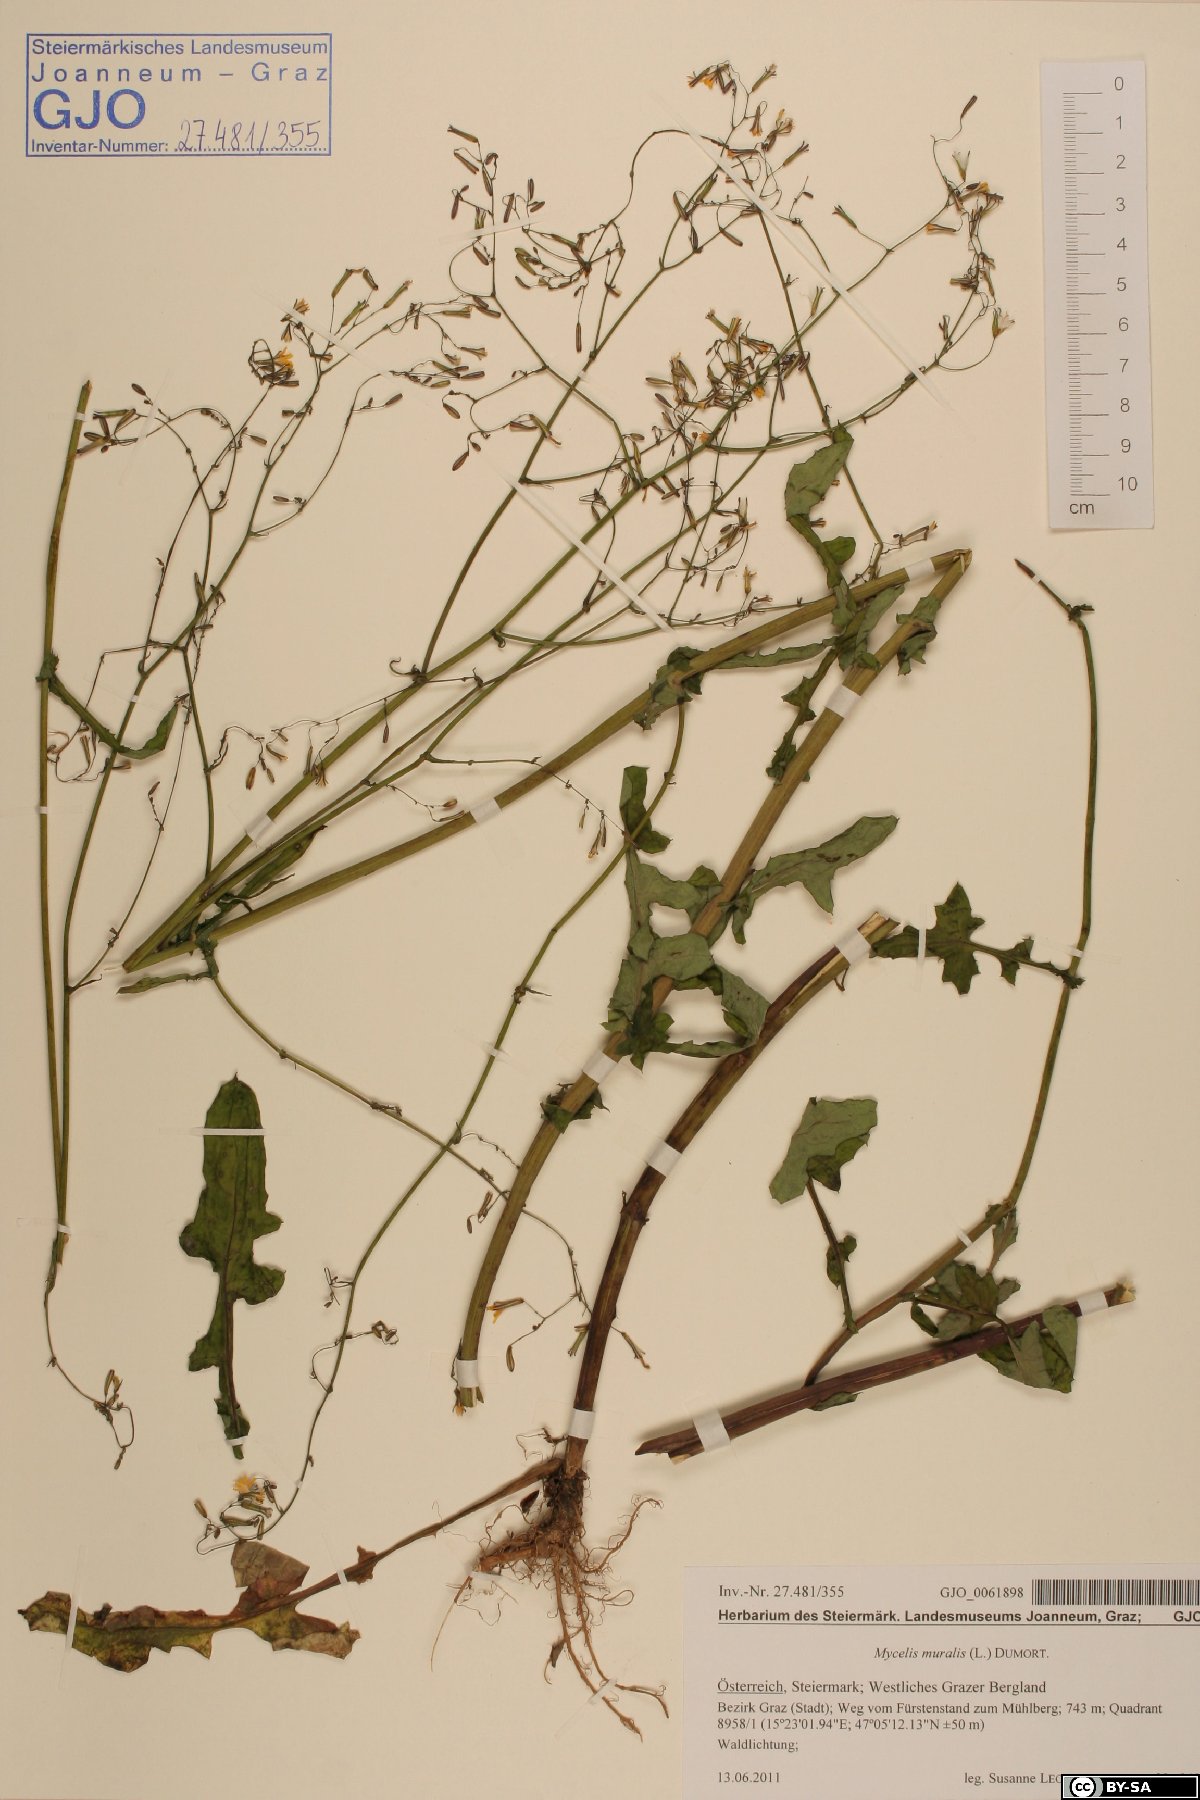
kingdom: Plantae
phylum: Tracheophyta
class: Magnoliopsida
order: Asterales
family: Asteraceae
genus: Mycelis
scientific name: Mycelis muralis
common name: Wall lettuce
